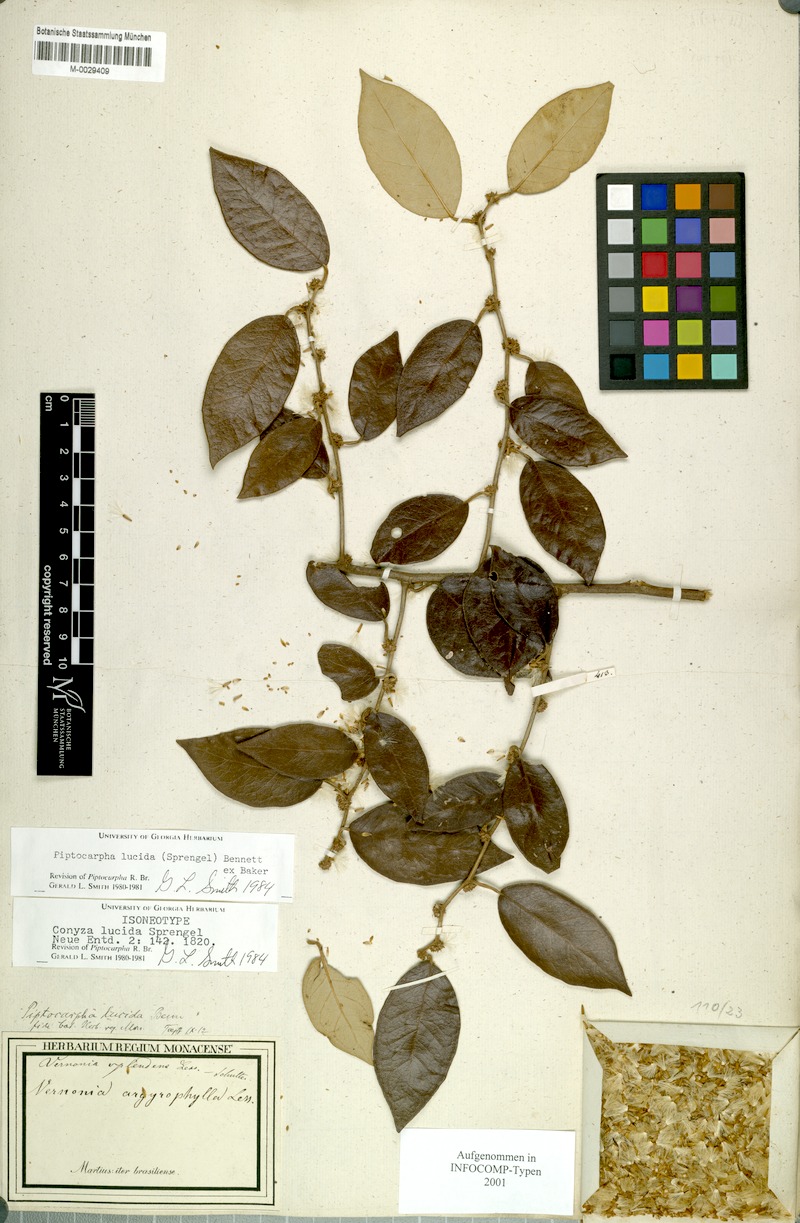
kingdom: Plantae
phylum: Tracheophyta
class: Magnoliopsida
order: Asterales
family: Asteraceae
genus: Piptocarpha
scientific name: Piptocarpha lucida
